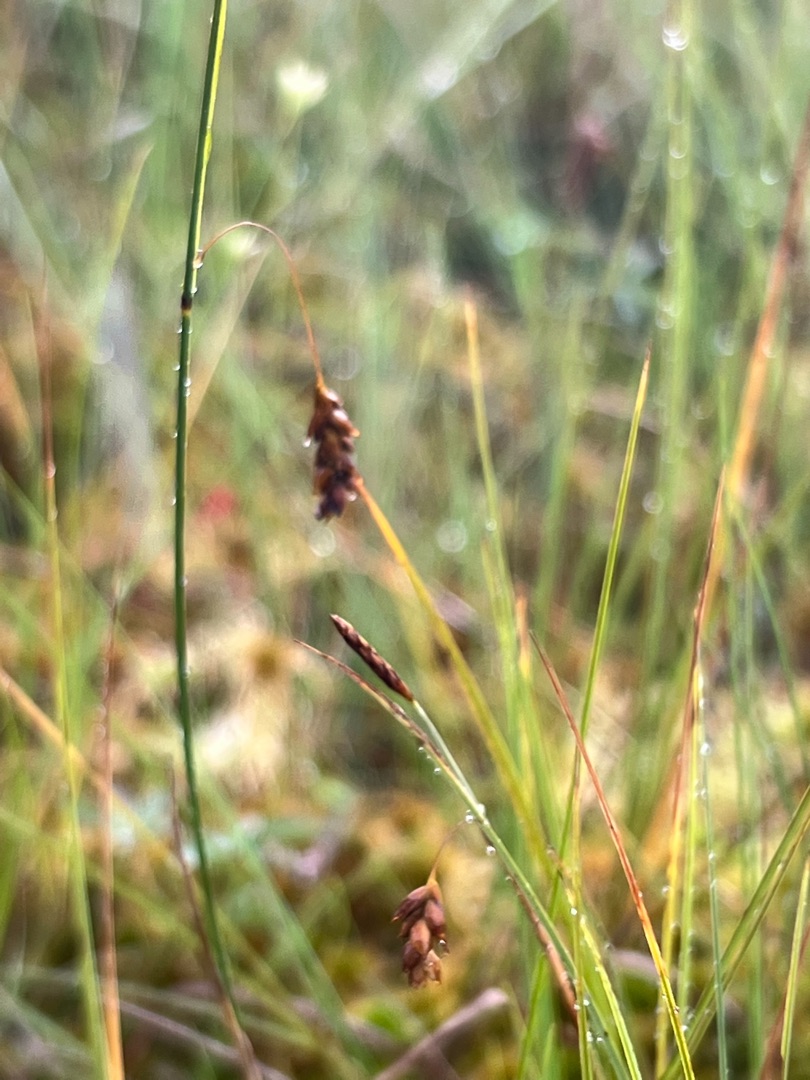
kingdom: Plantae
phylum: Tracheophyta
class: Liliopsida
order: Poales
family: Cyperaceae
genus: Carex
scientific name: Carex limosa
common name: Dynd-star
